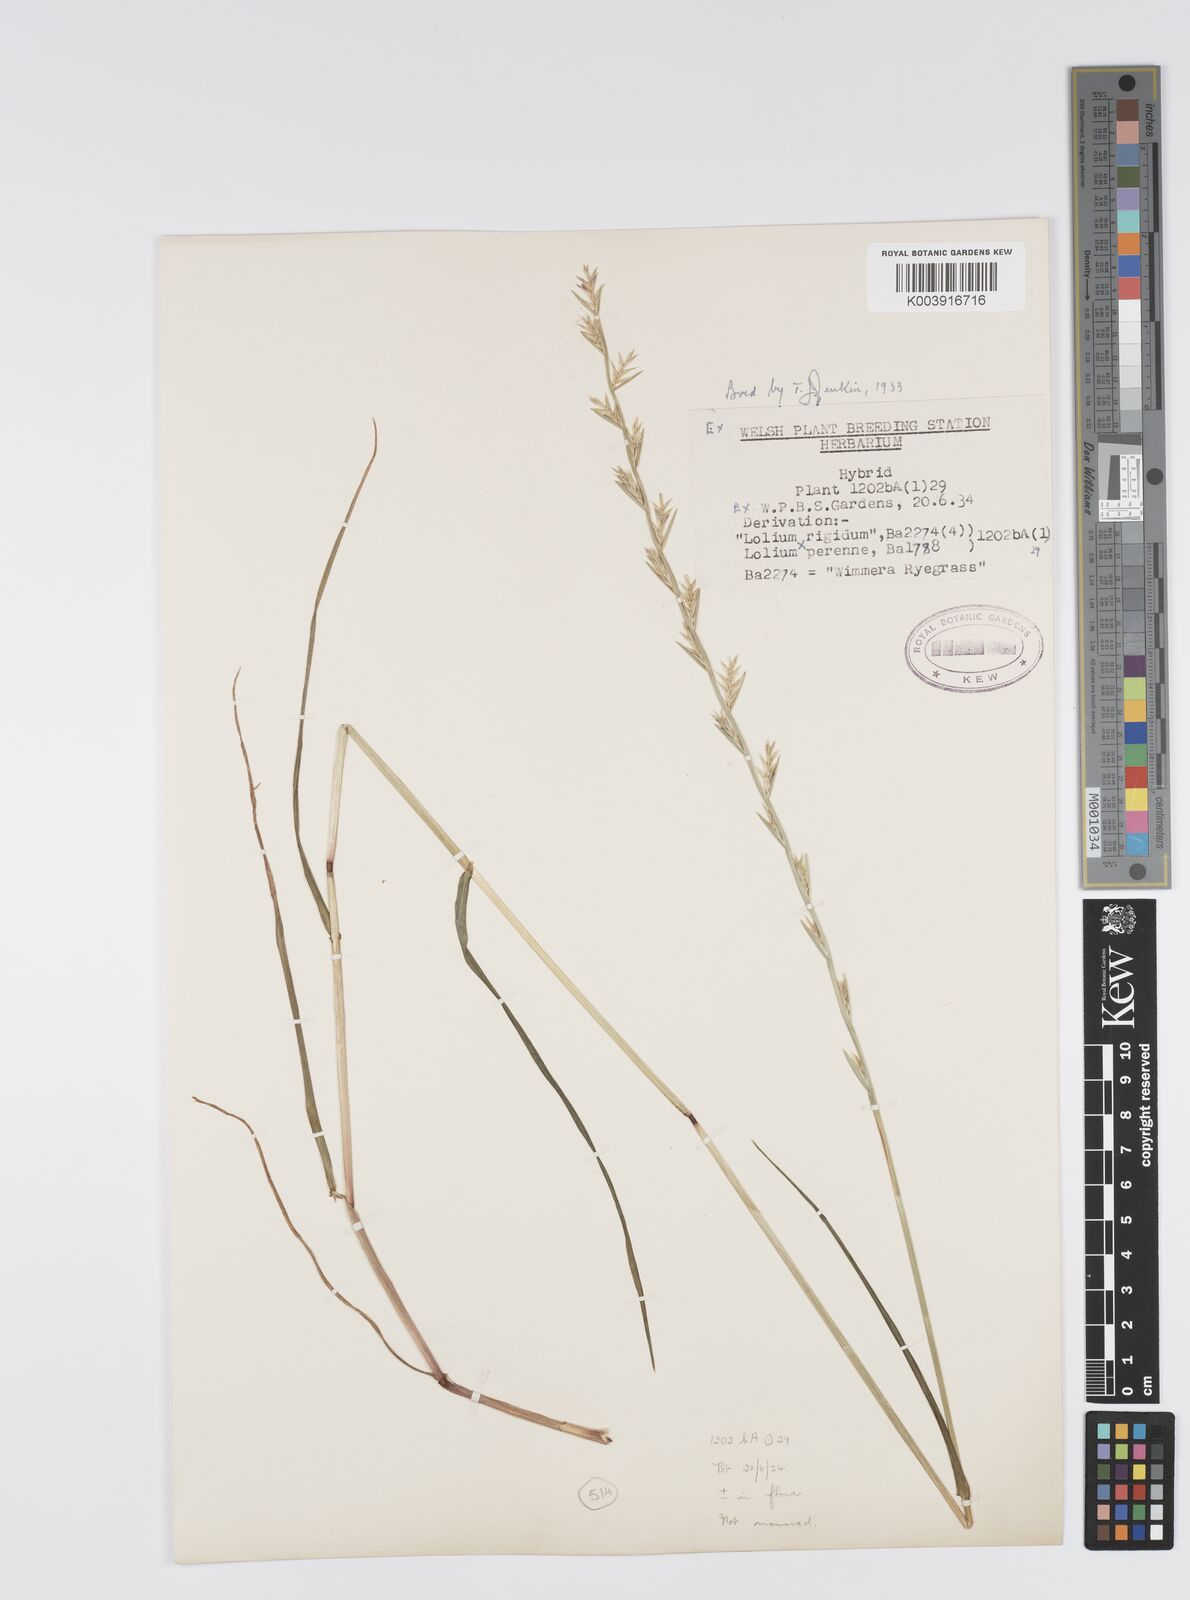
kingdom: Plantae
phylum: Tracheophyta
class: Liliopsida
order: Poales
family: Poaceae
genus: Lolium
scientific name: Lolium perenne
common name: Perennial ryegrass
